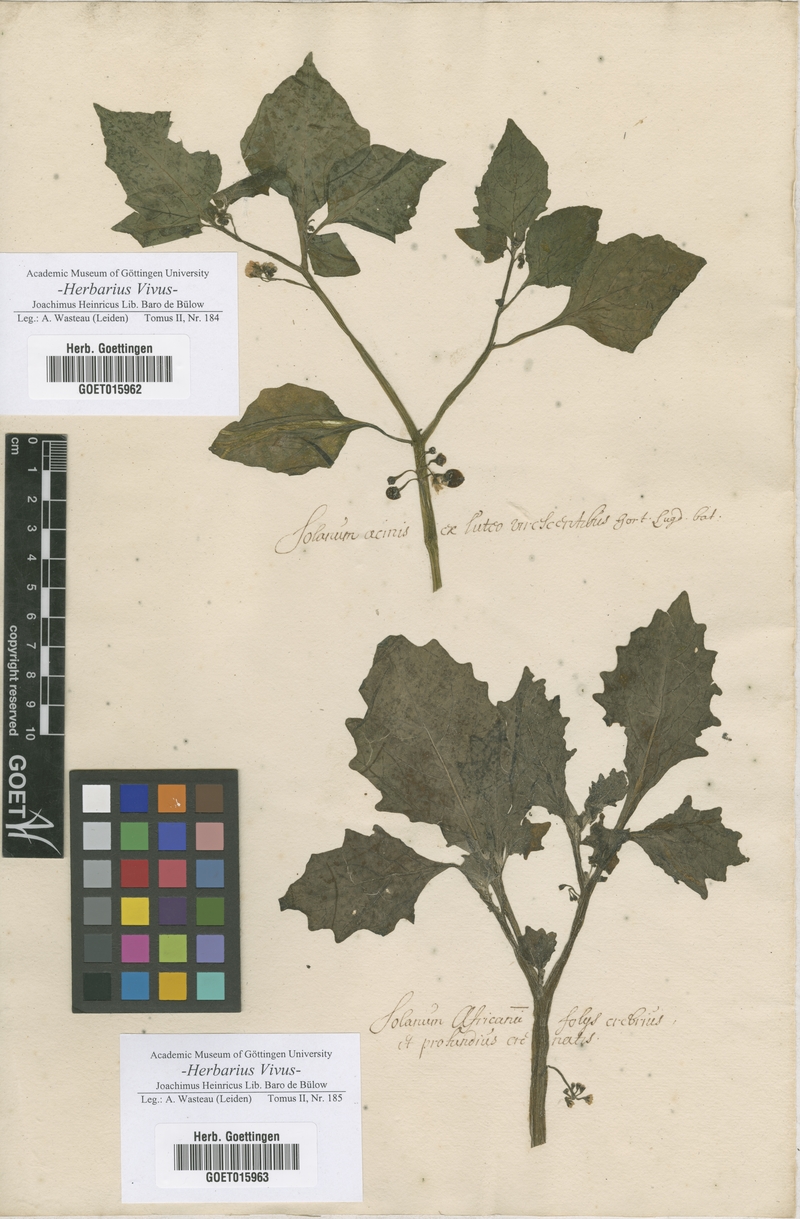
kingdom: Plantae
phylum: Tracheophyta
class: Magnoliopsida
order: Solanales
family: Solanaceae
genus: Solanum
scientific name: Solanum
